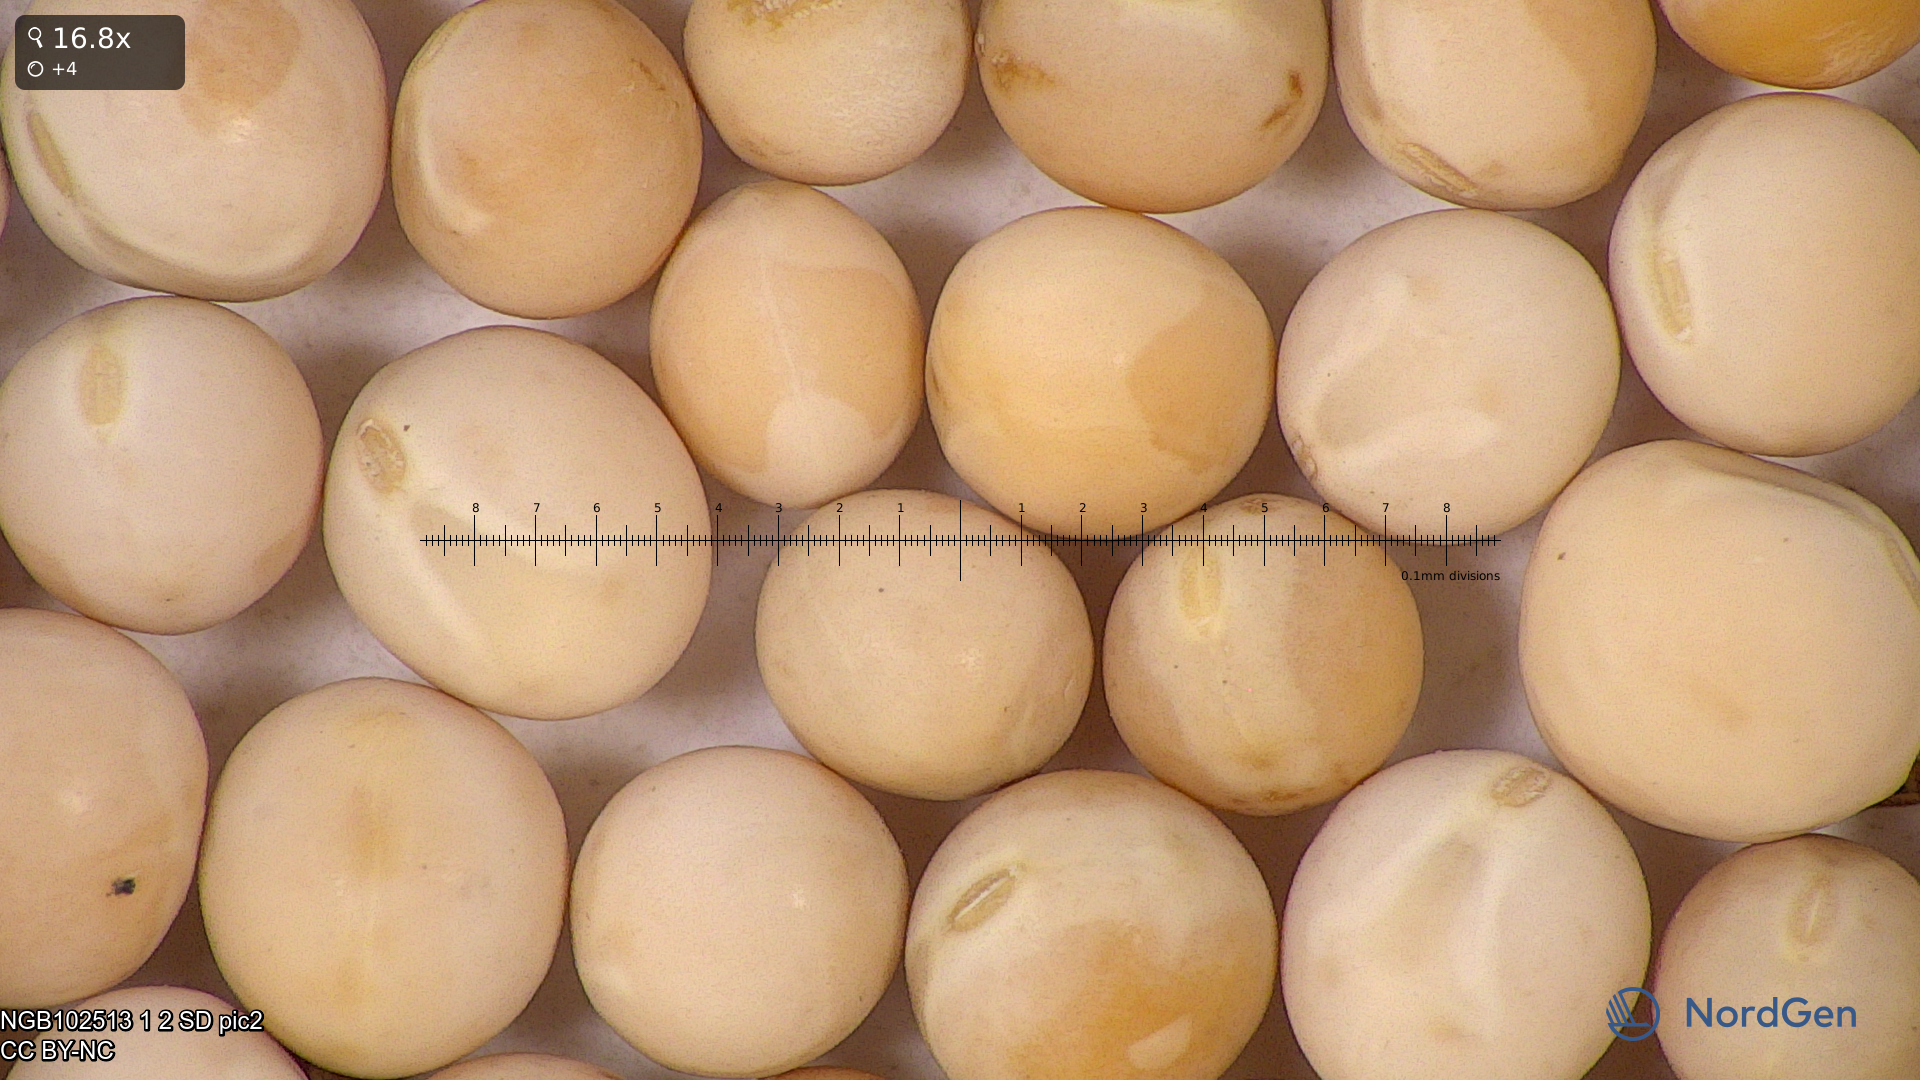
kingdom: Plantae
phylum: Tracheophyta
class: Magnoliopsida
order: Fabales
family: Fabaceae
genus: Lathyrus
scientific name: Lathyrus oleraceus
